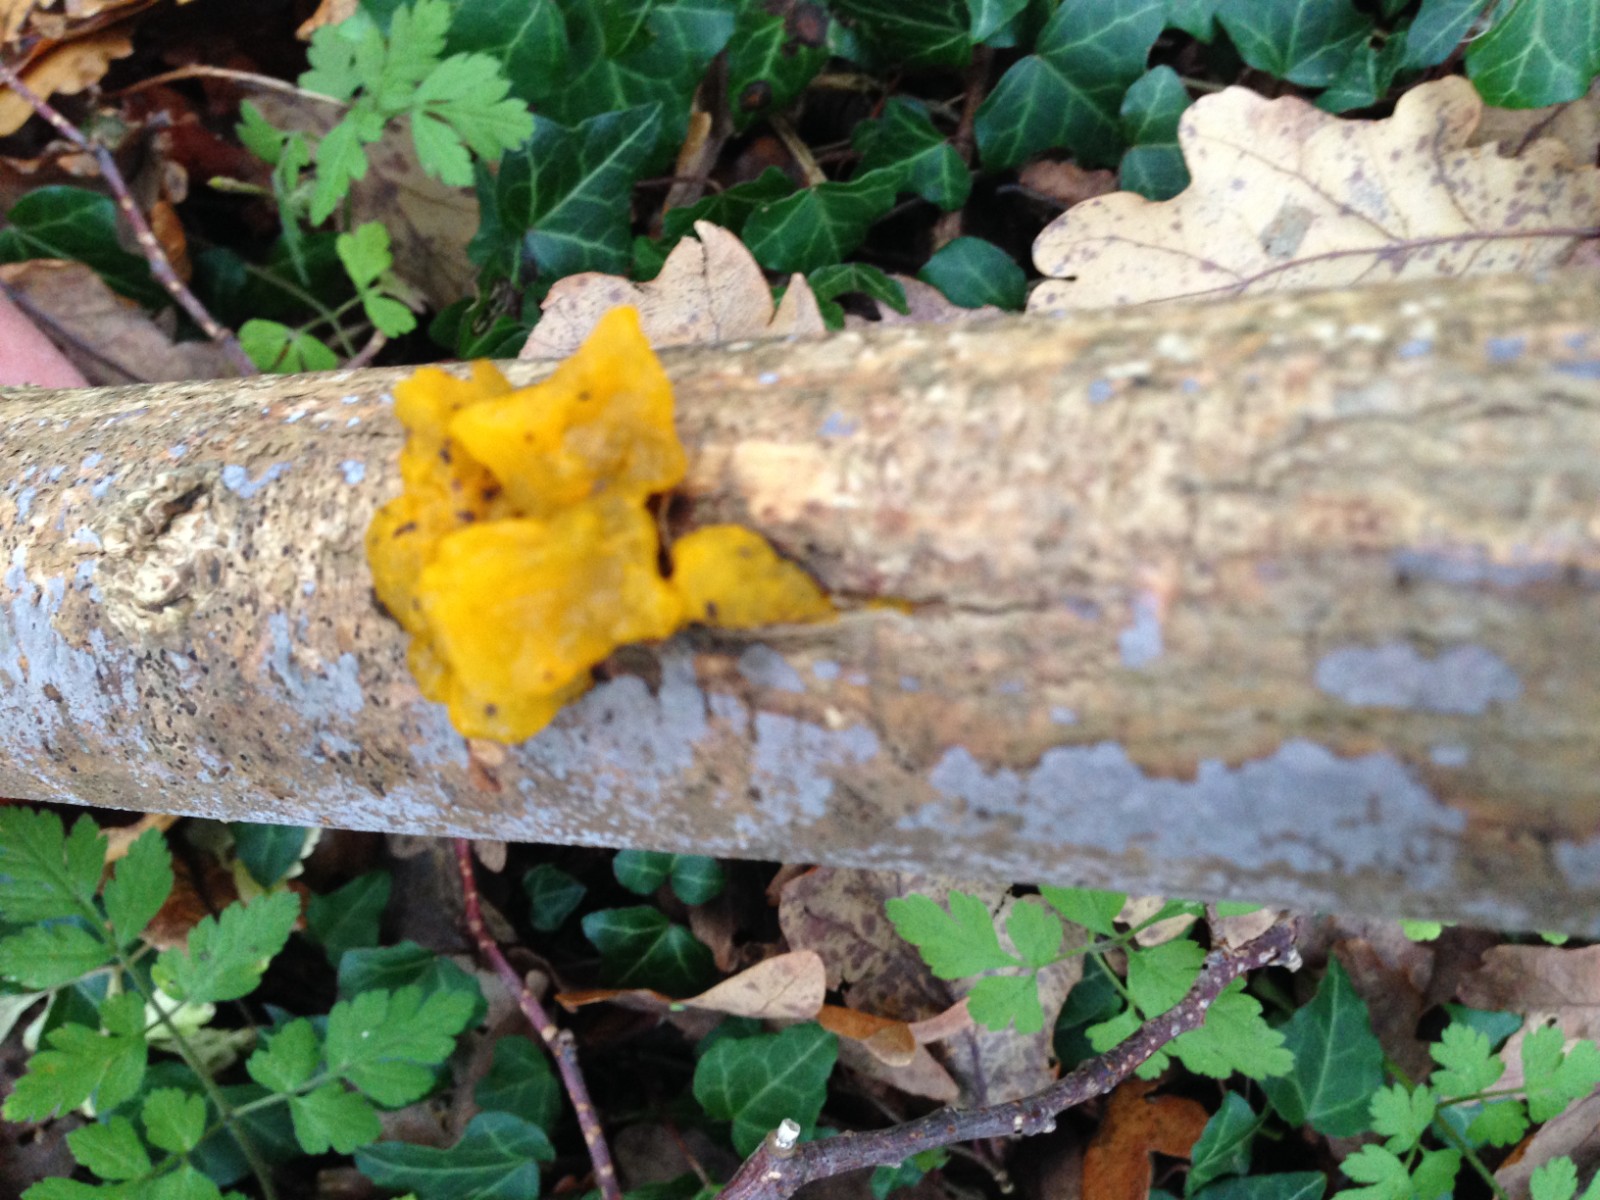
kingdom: Fungi
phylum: Basidiomycota
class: Agaricomycetes
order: Russulales
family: Peniophoraceae
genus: Peniophora
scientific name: Peniophora lycii
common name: grynet voksskind
